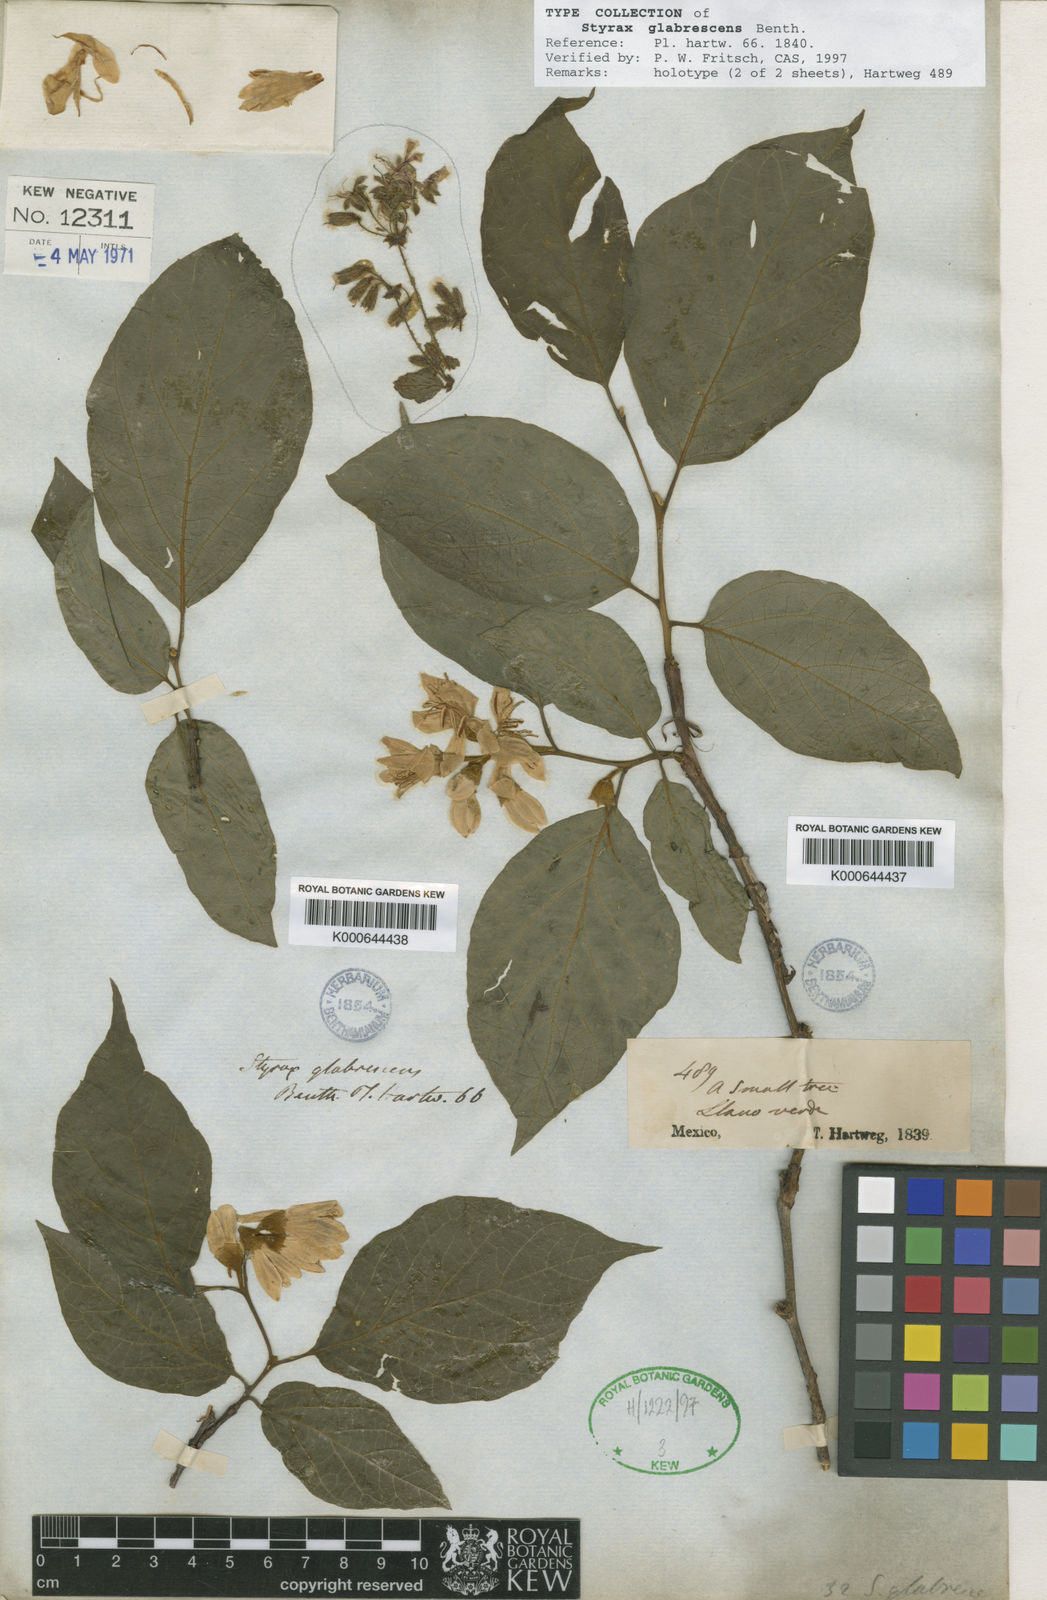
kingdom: Plantae
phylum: Tracheophyta
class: Magnoliopsida
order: Ericales
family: Styracaceae
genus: Styrax
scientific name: Styrax glabrescens
